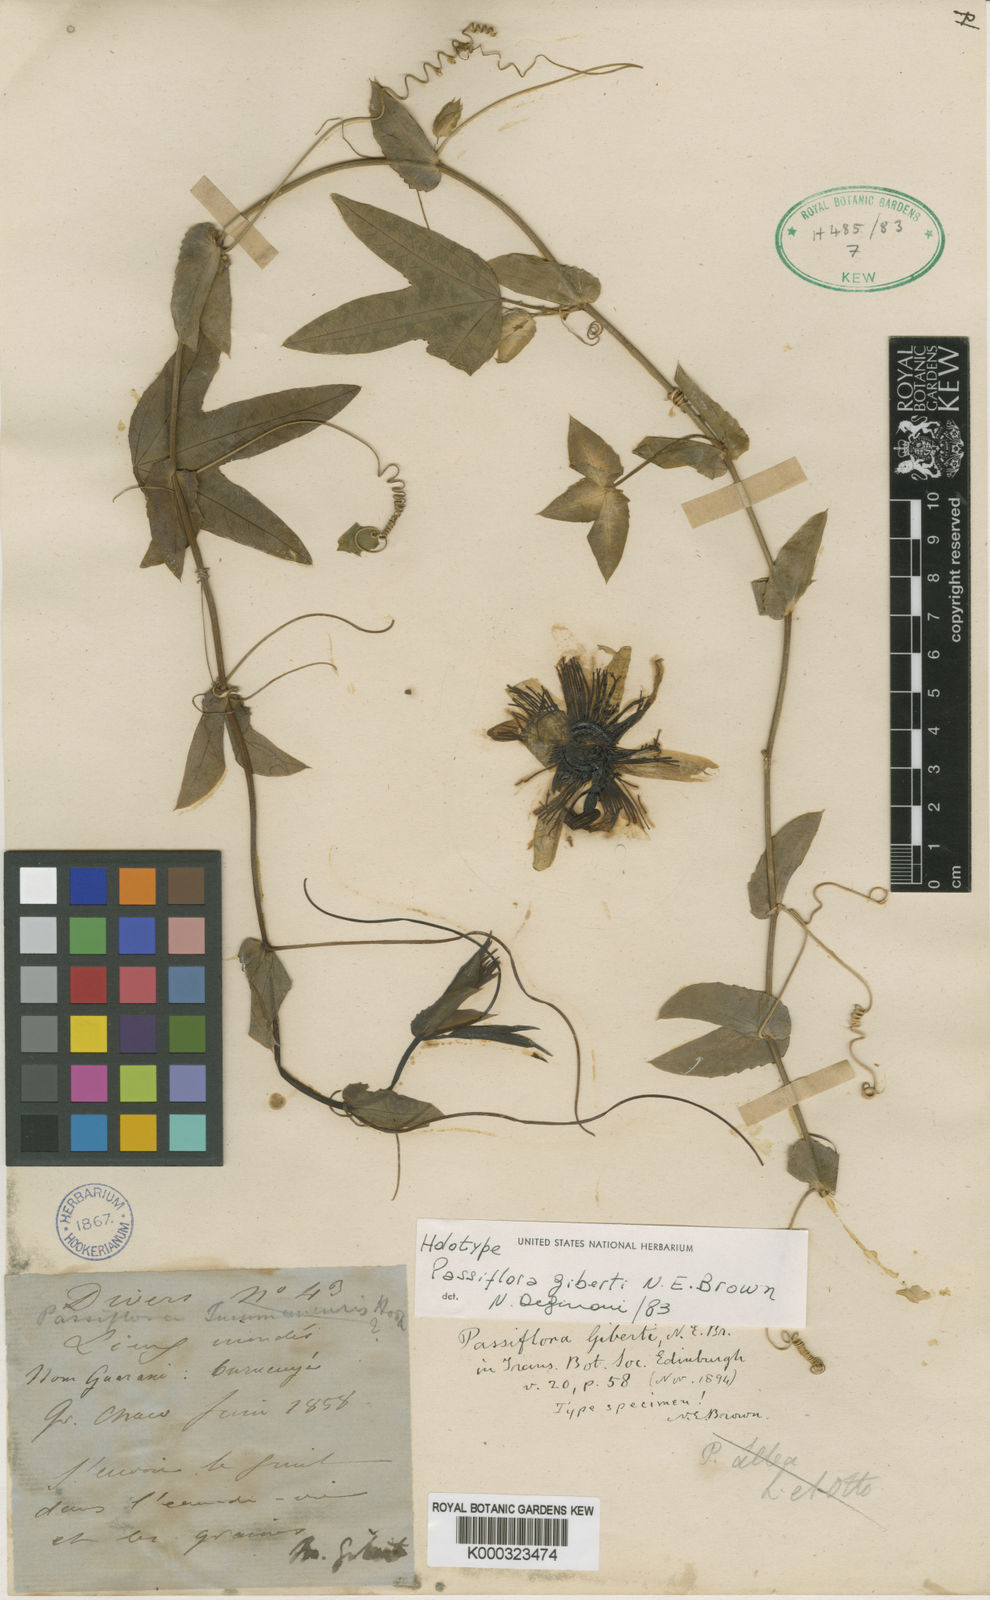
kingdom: Plantae
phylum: Tracheophyta
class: Magnoliopsida
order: Malpighiales
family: Passifloraceae
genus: Passiflora
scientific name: Passiflora giberti
